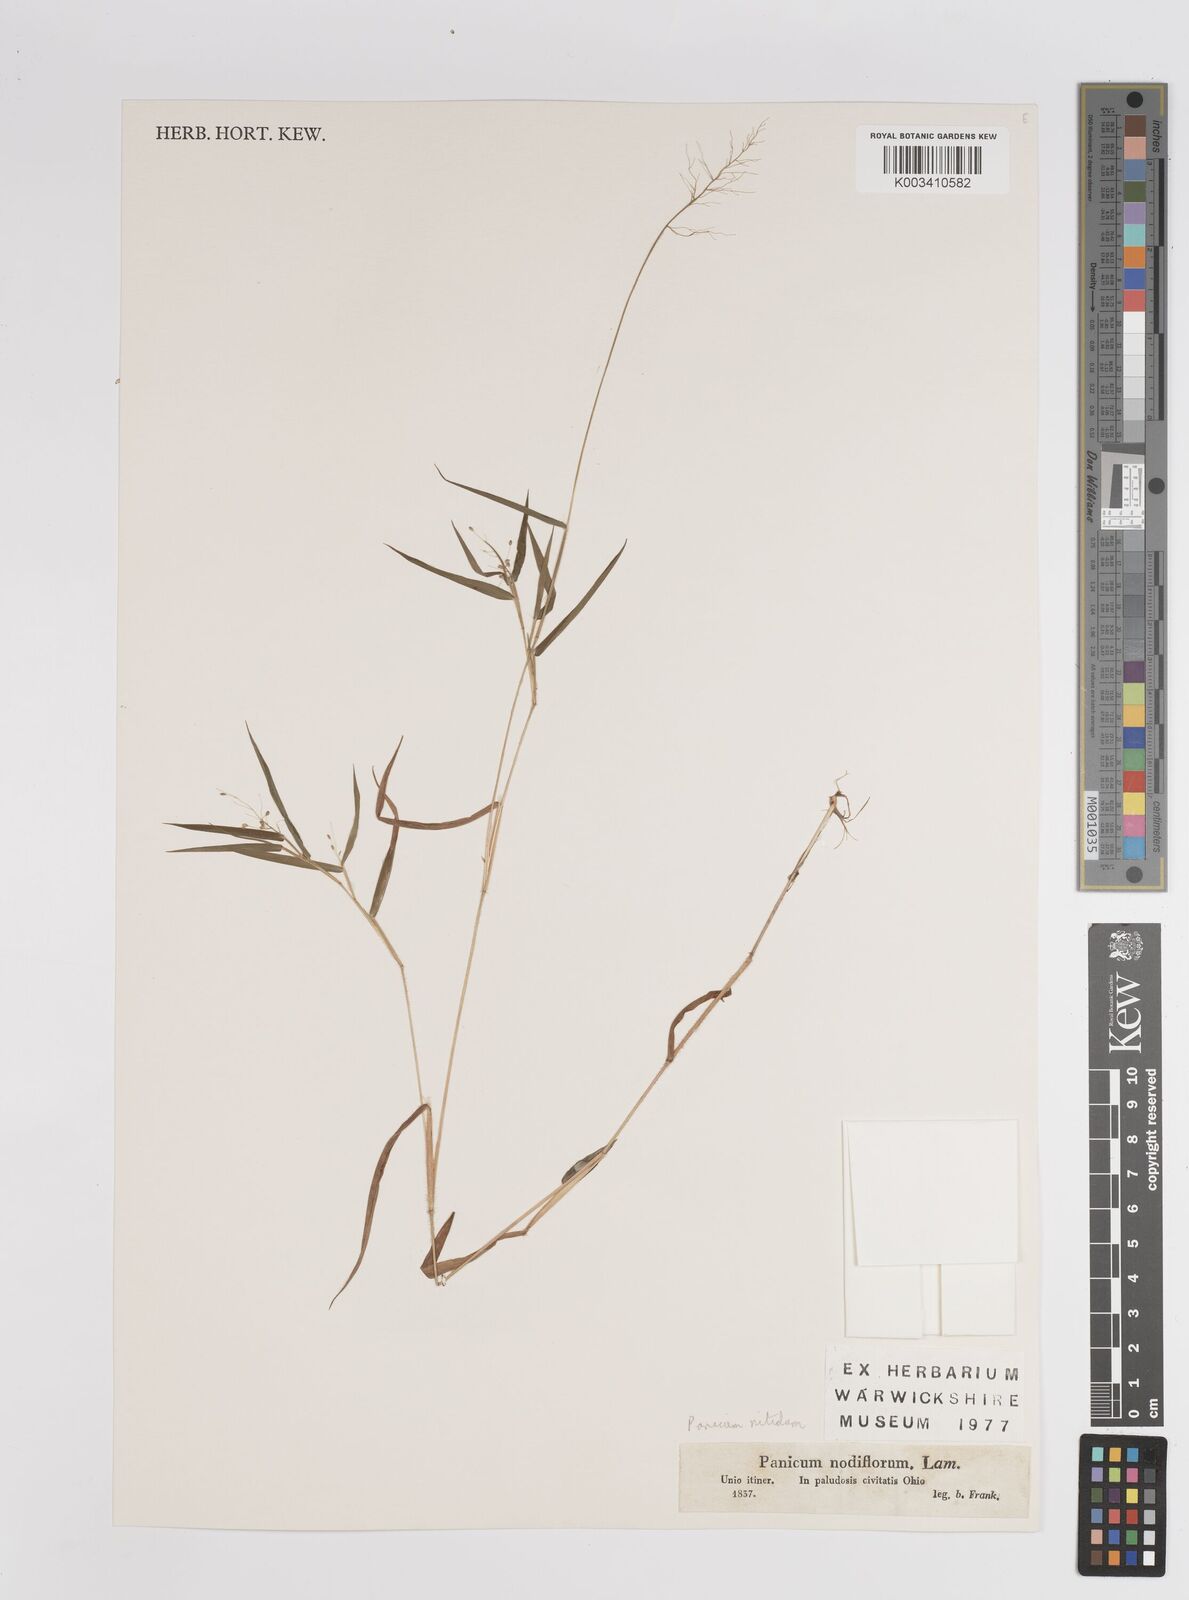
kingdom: Plantae
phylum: Tracheophyta
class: Liliopsida
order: Poales
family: Poaceae
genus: Dichanthelium
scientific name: Dichanthelium mattamuskeetense
